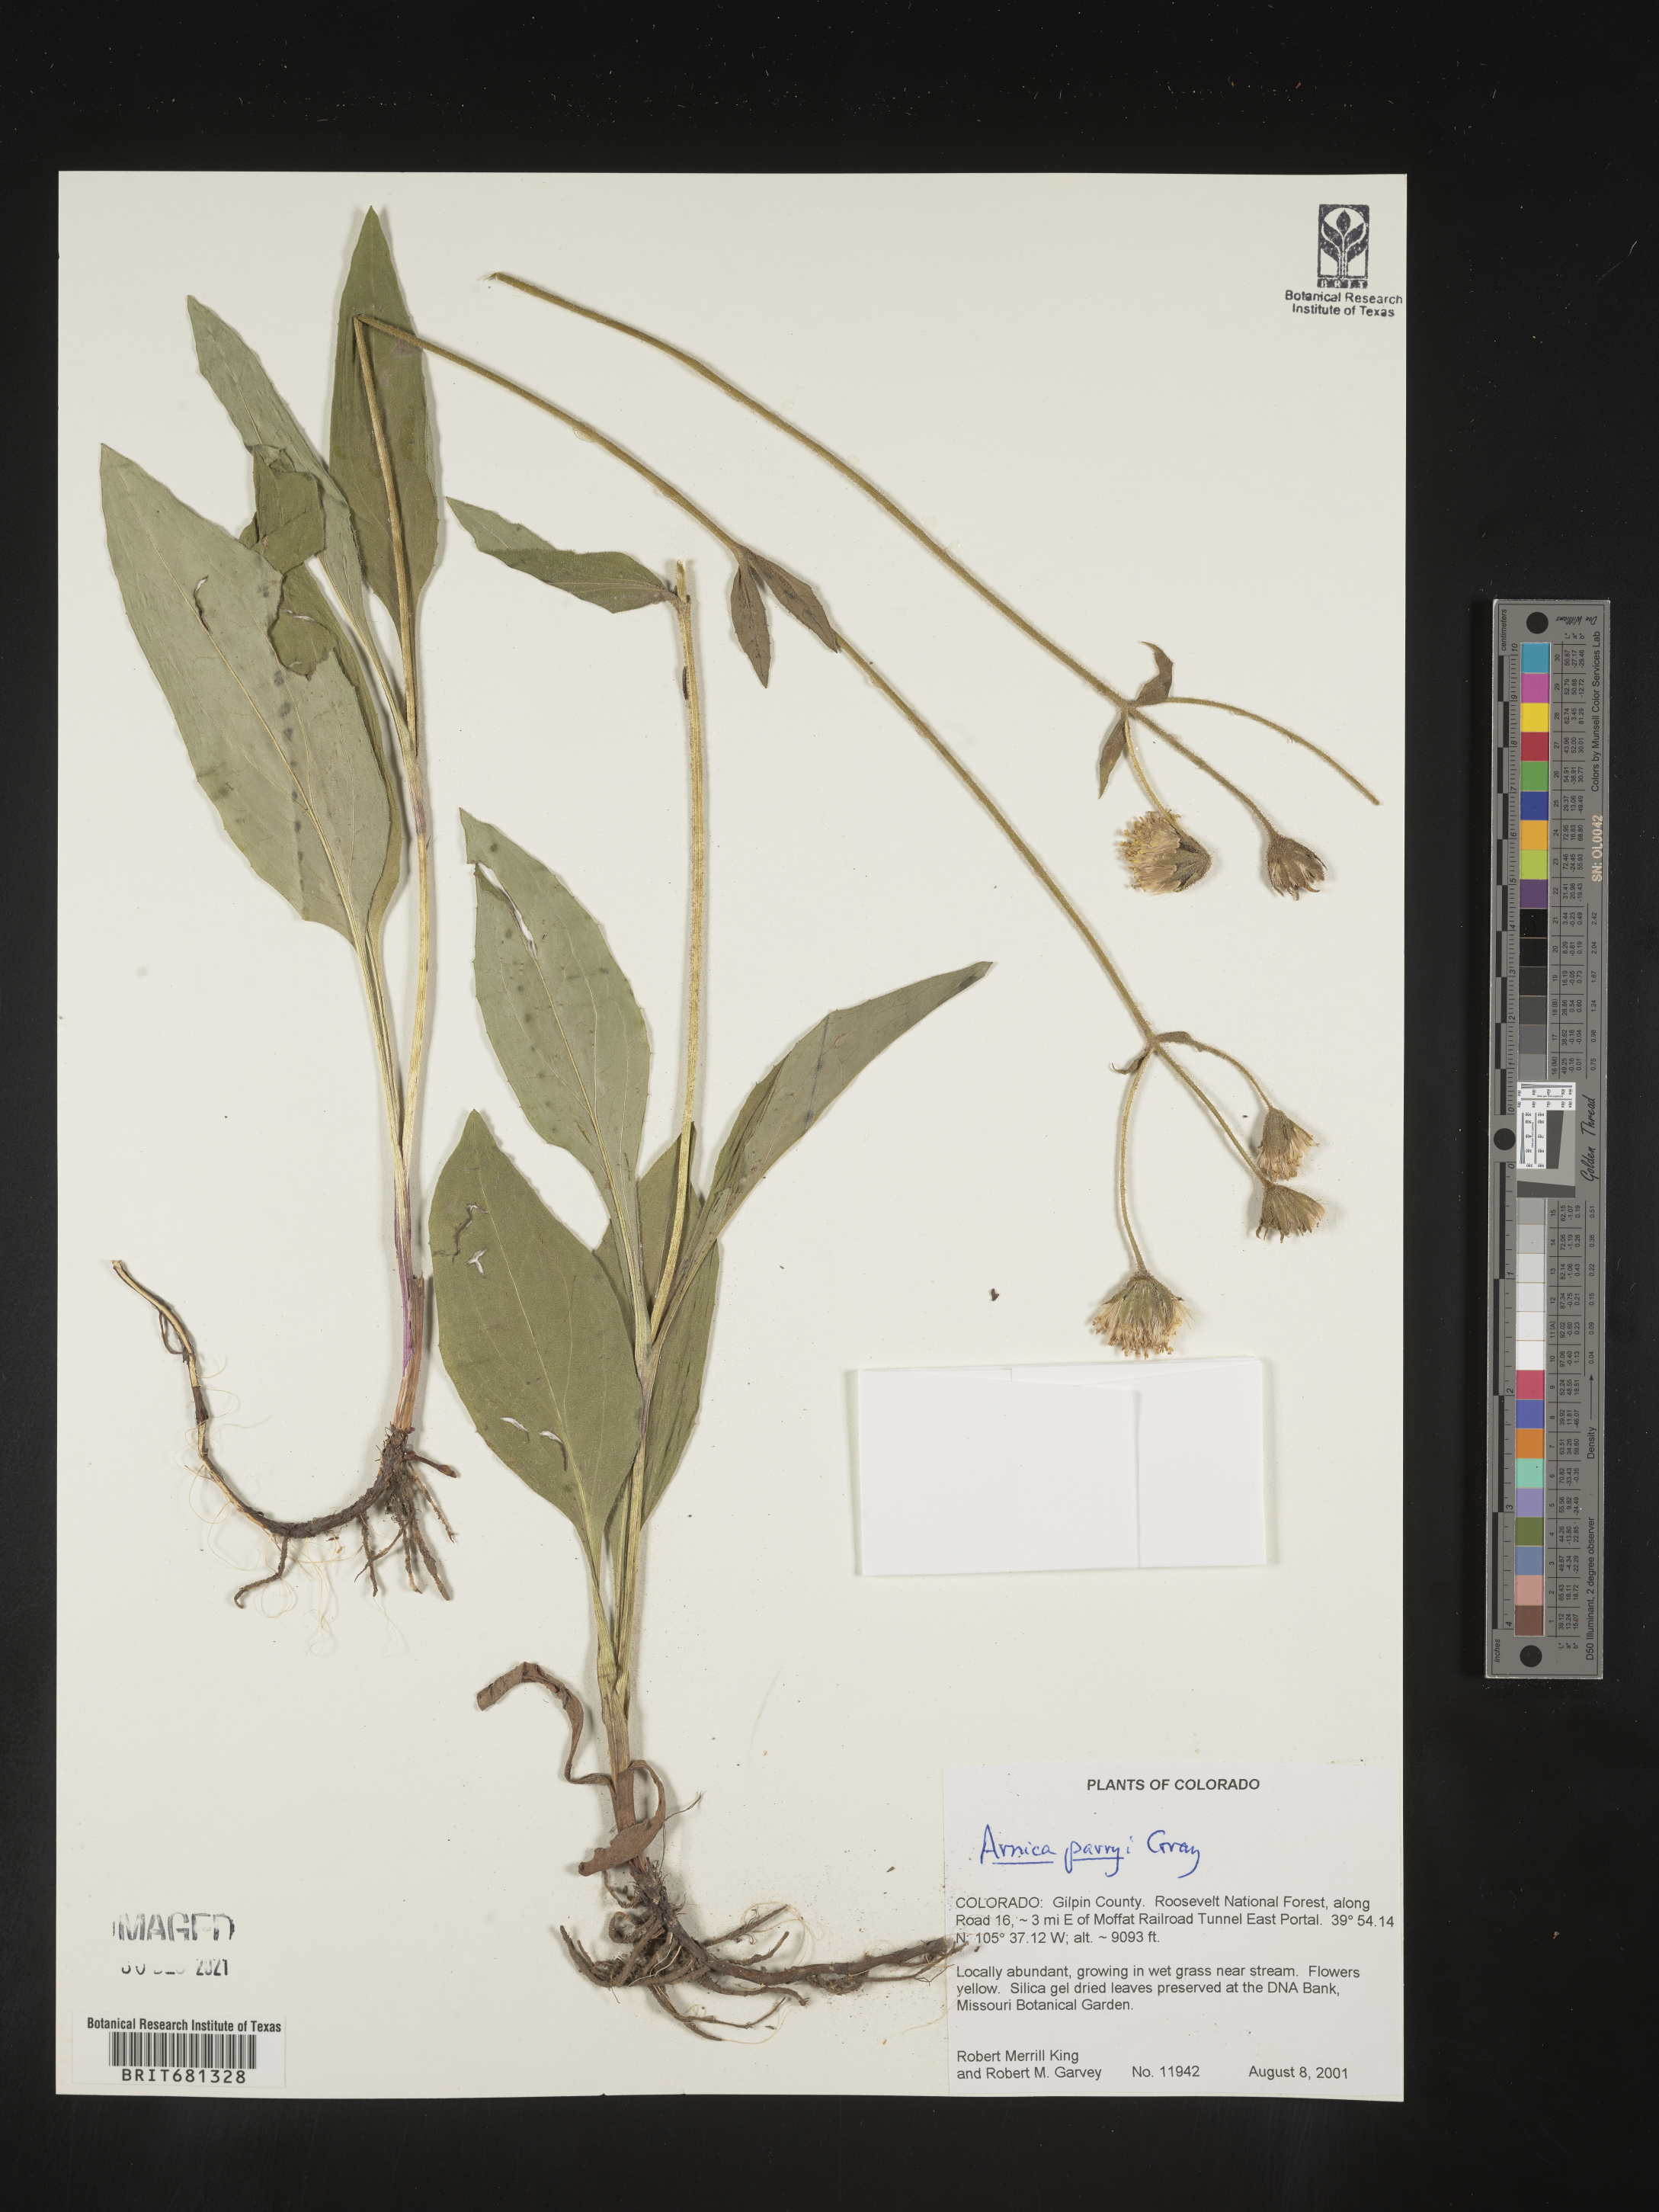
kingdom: Plantae
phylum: Tracheophyta
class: Magnoliopsida
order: Asterales
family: Asteraceae
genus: Arnica
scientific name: Arnica parryi
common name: Parry's arnica
